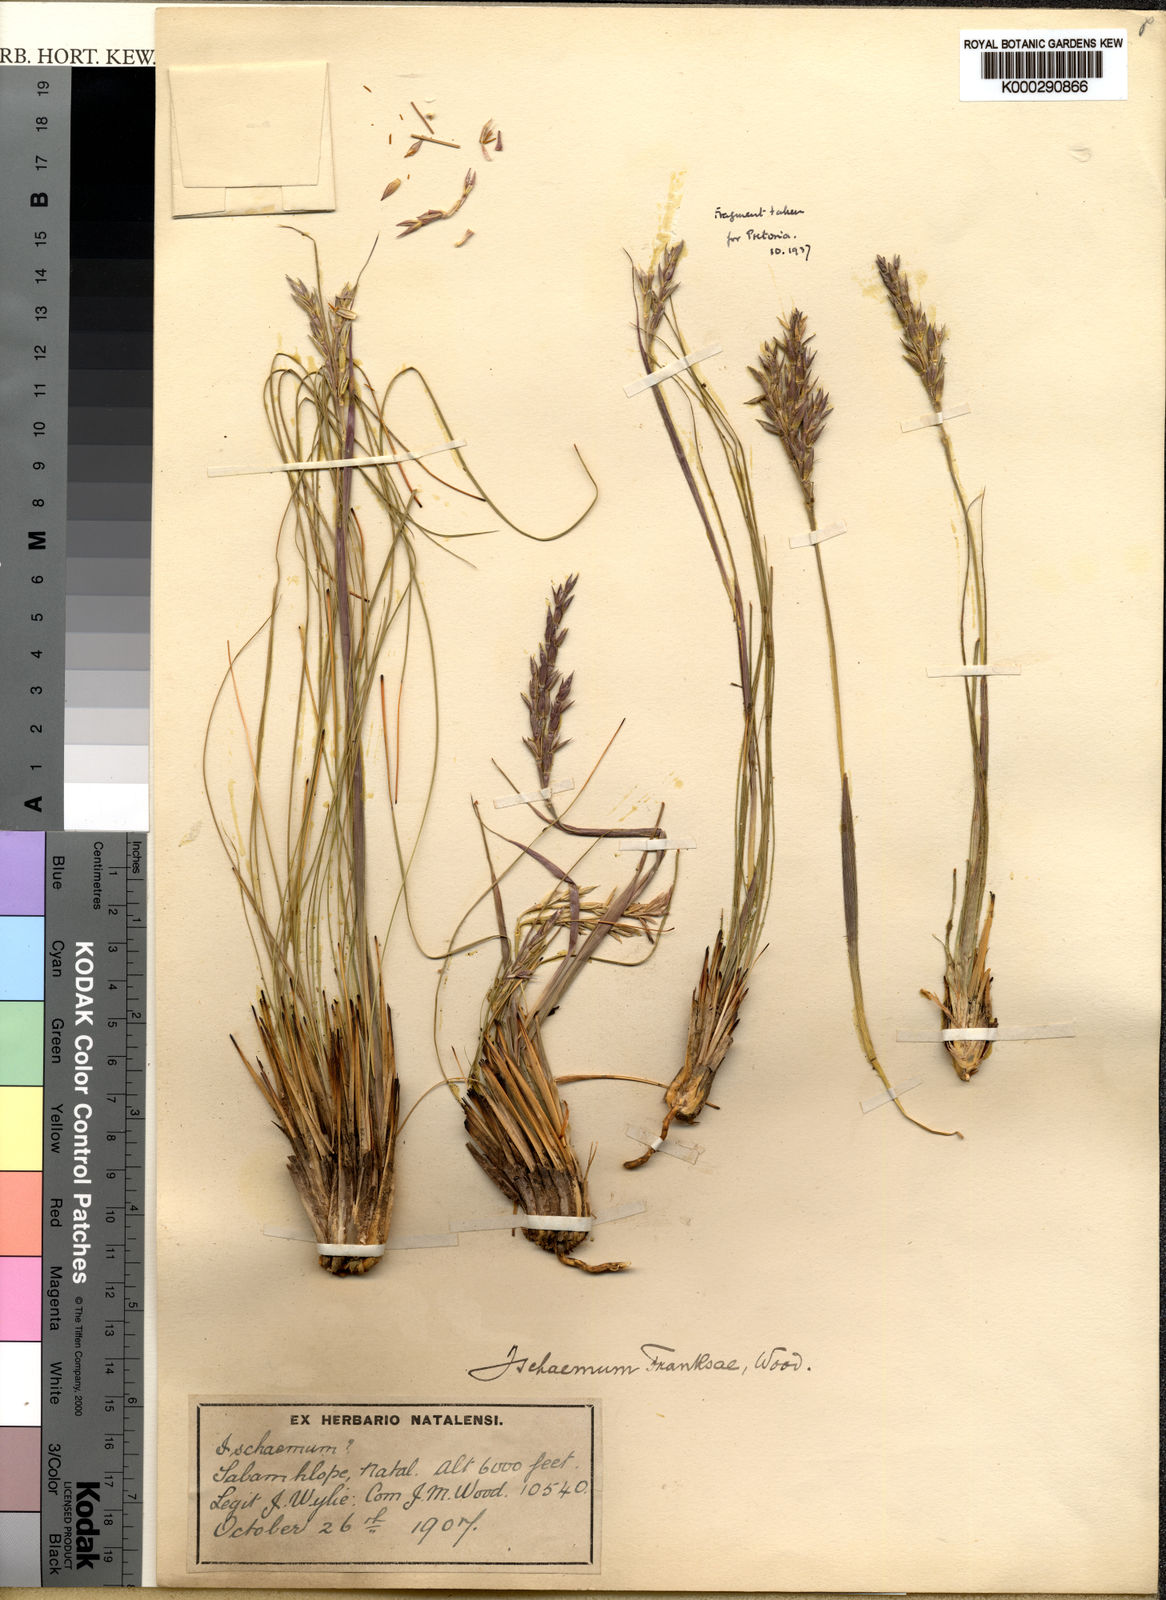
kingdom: Plantae
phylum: Tracheophyta
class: Liliopsida
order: Poales
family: Poaceae
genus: Phacelurus
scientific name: Phacelurus franksiae
